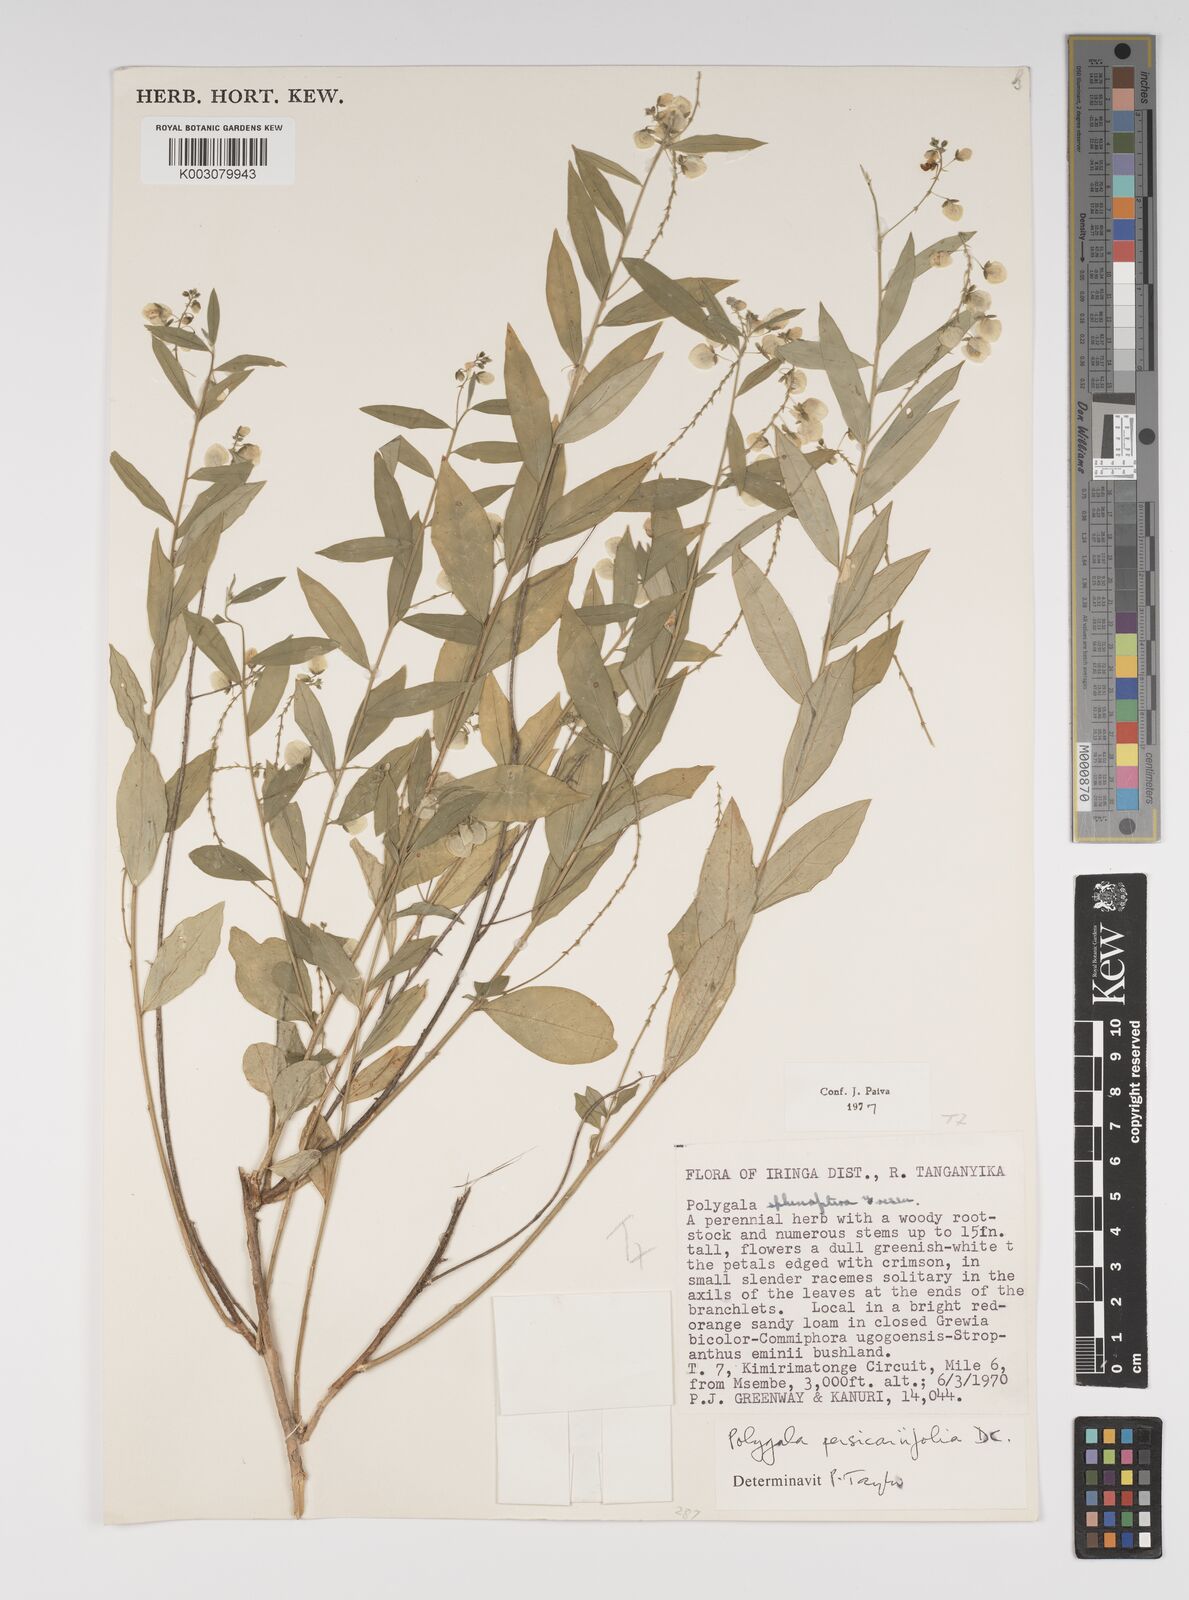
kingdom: Plantae
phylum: Tracheophyta
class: Magnoliopsida
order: Fabales
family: Polygalaceae
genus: Polygala
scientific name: Polygala persicariifolia
